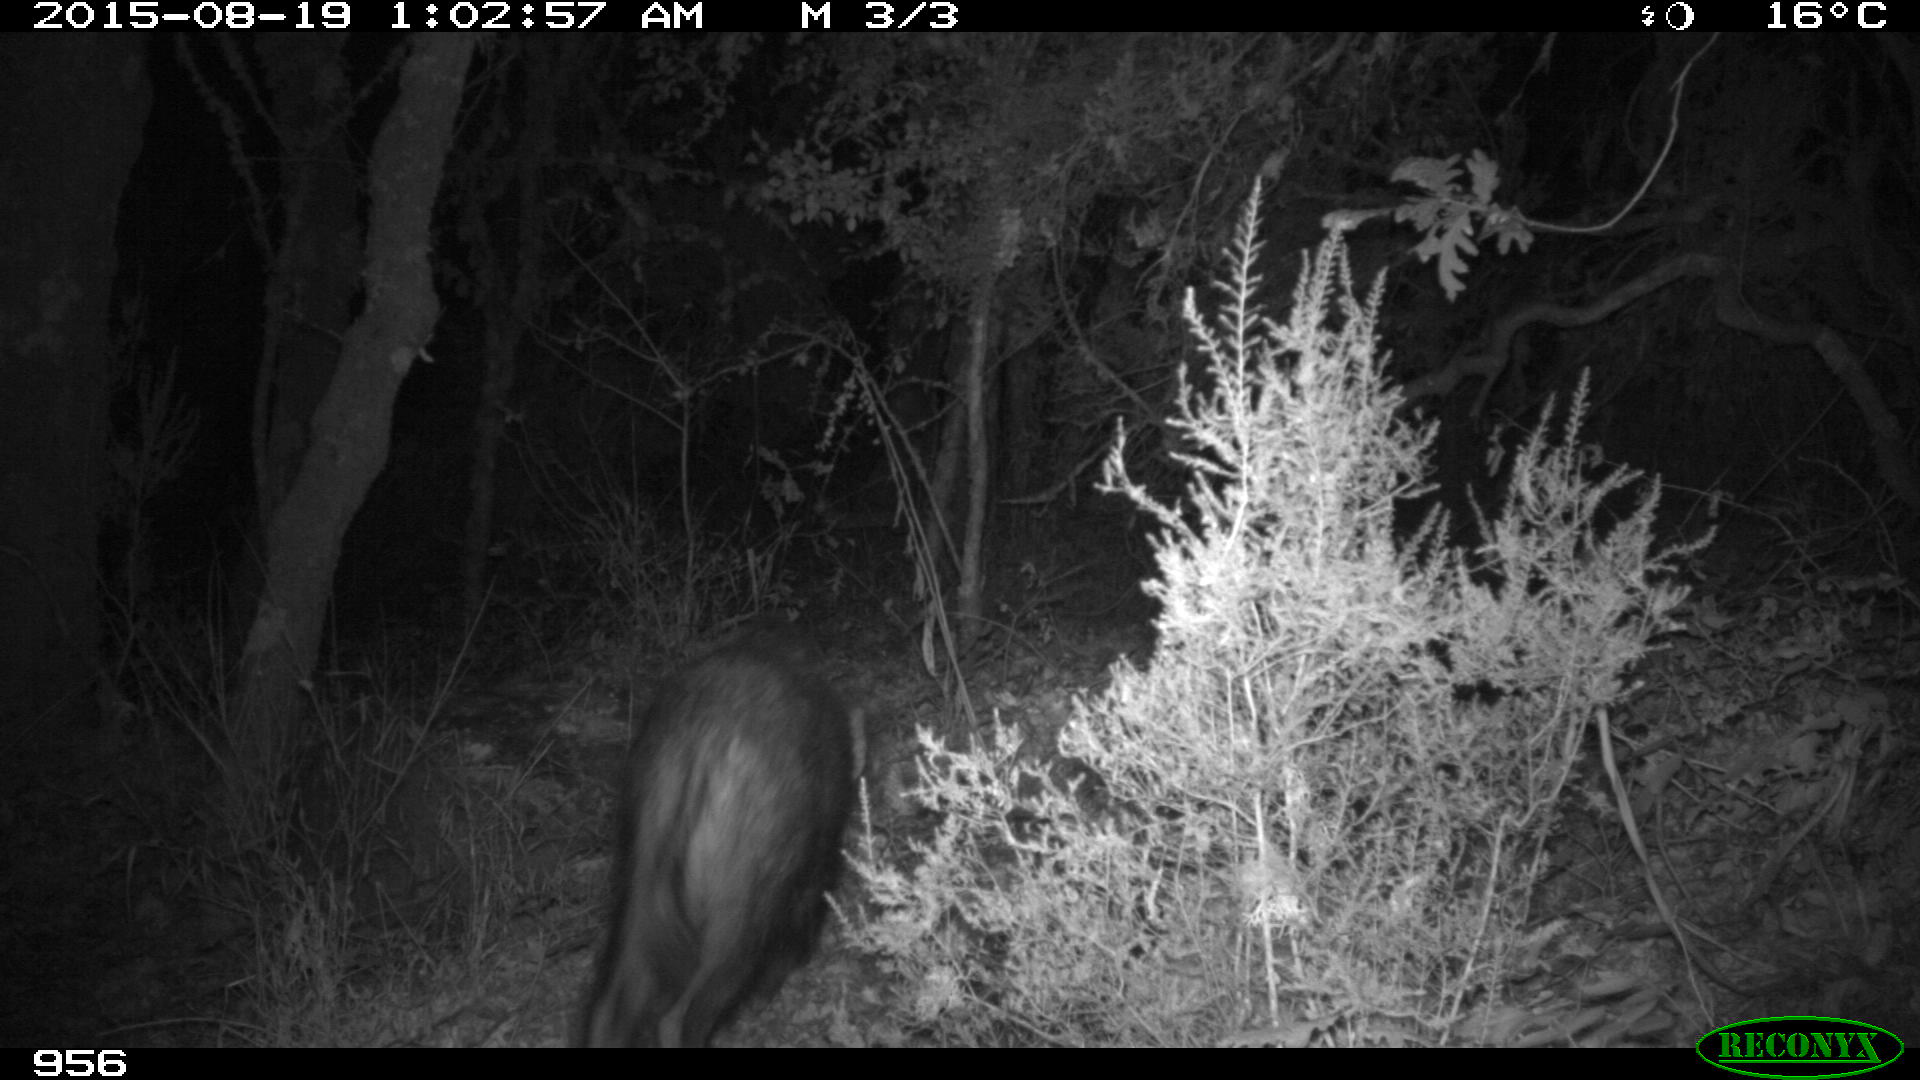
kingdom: Animalia
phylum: Chordata
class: Mammalia
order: Artiodactyla
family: Suidae
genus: Sus
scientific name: Sus scrofa
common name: Wild boar
